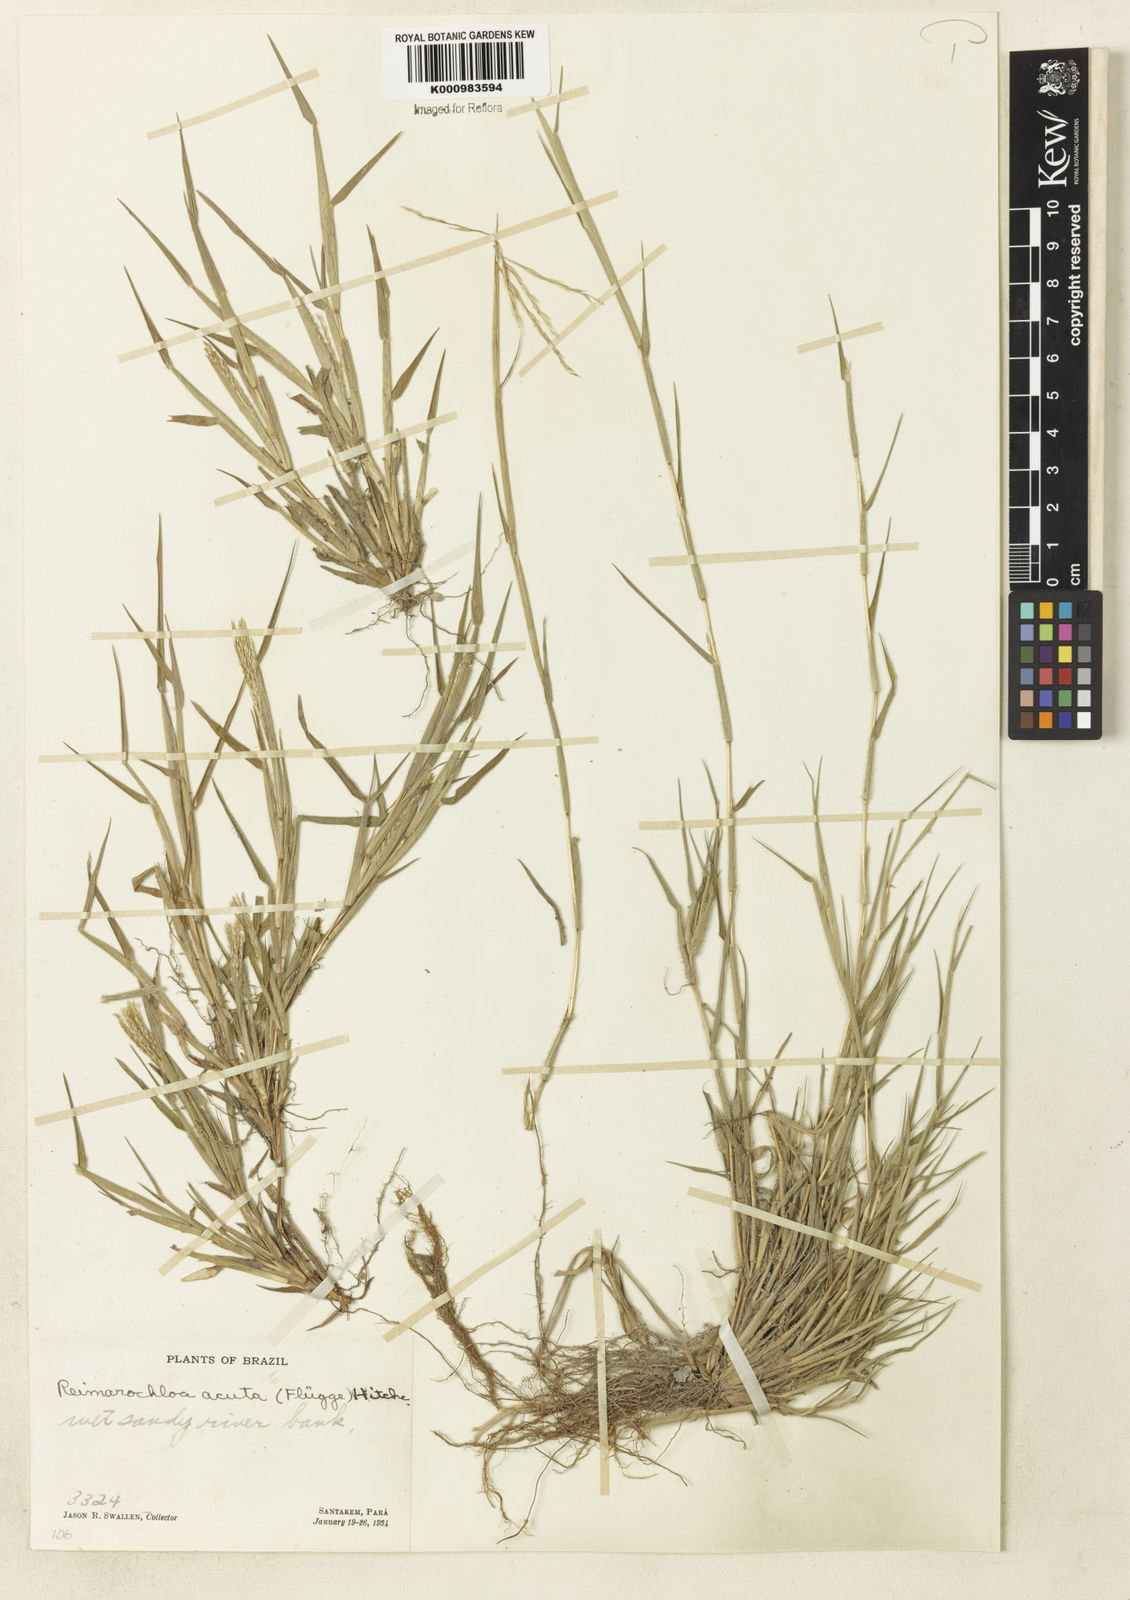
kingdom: Plantae
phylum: Tracheophyta
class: Liliopsida
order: Poales
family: Poaceae
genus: Paspalum
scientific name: Paspalum
